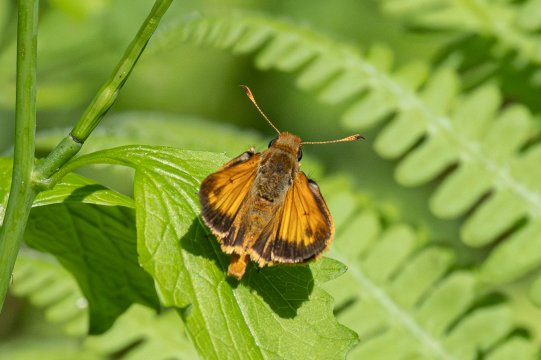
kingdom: Animalia
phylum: Arthropoda
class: Insecta
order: Lepidoptera
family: Hesperiidae
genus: Lon
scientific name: Lon zabulon
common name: Zabulon Skipper
